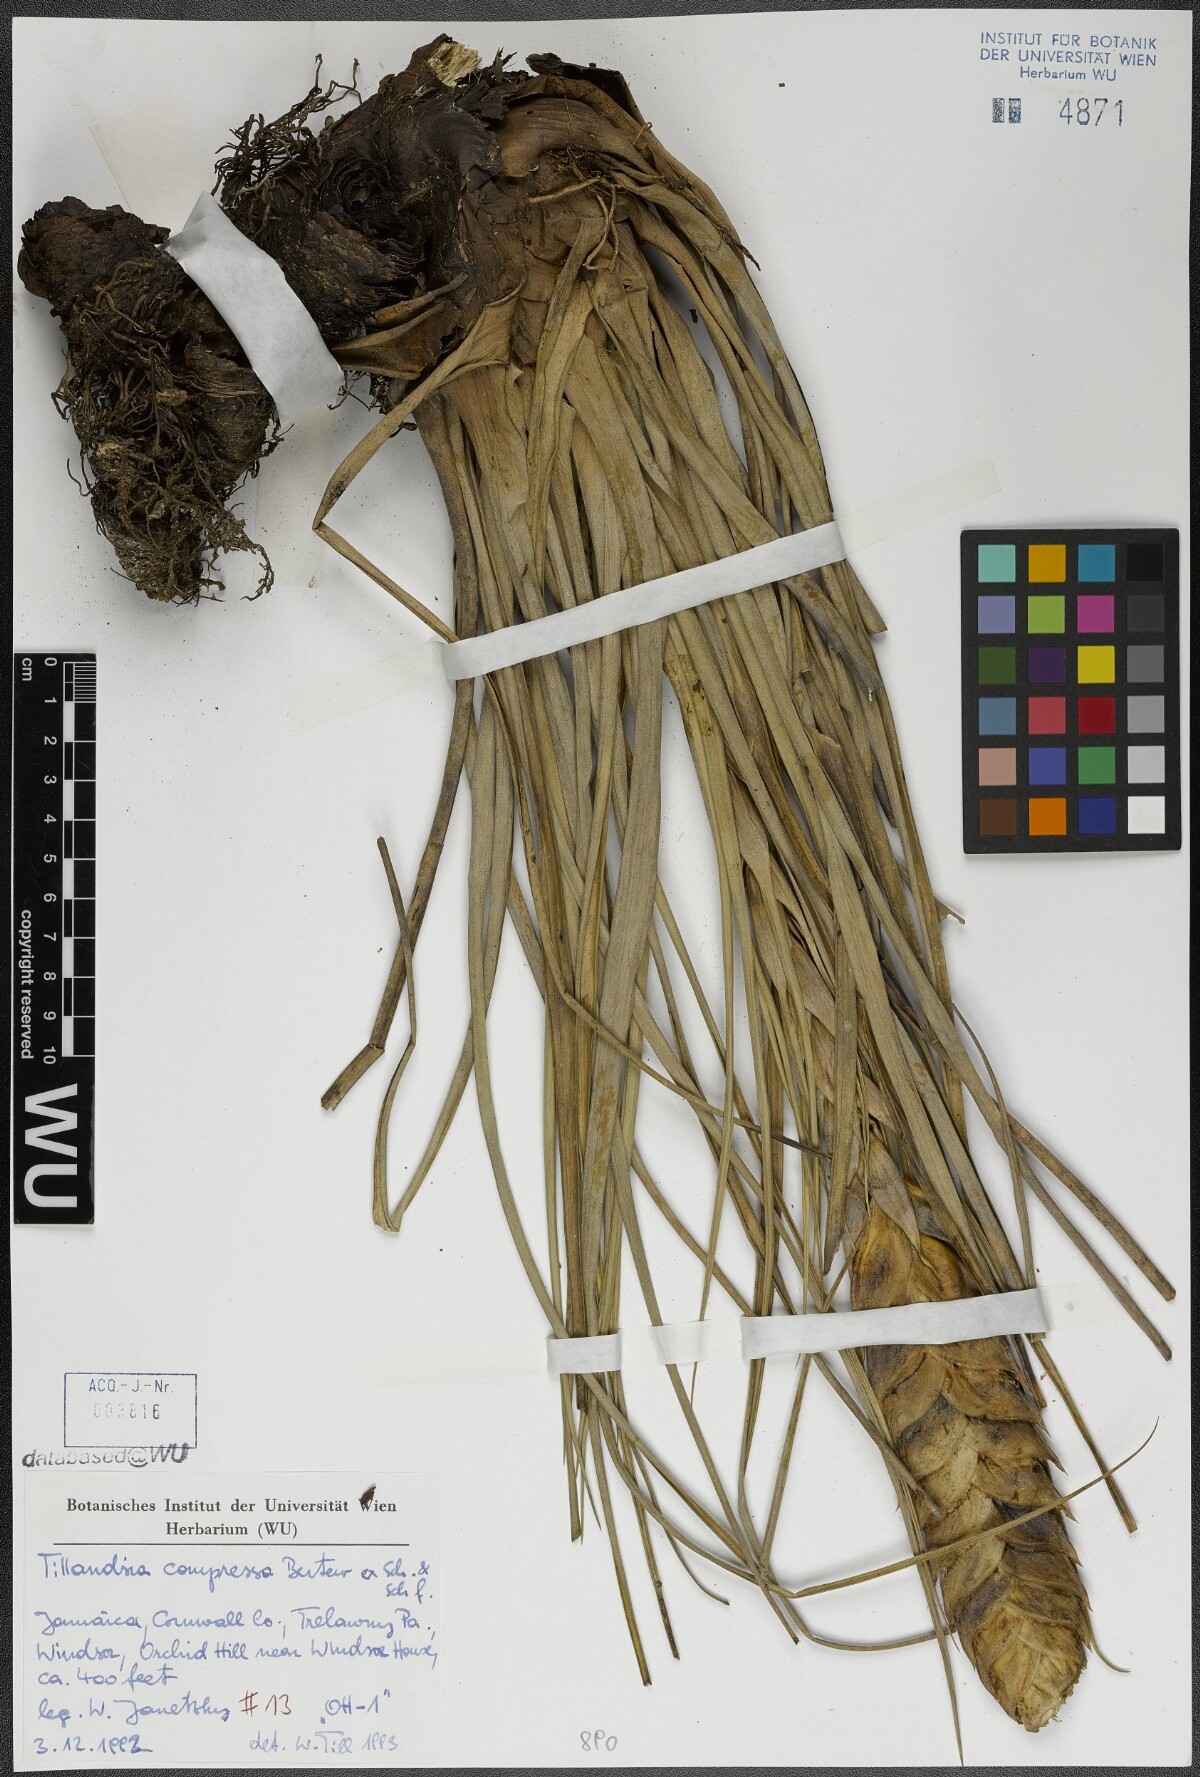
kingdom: Plantae
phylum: Tracheophyta
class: Liliopsida
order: Poales
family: Bromeliaceae
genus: Tillandsia
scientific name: Tillandsia compressa
